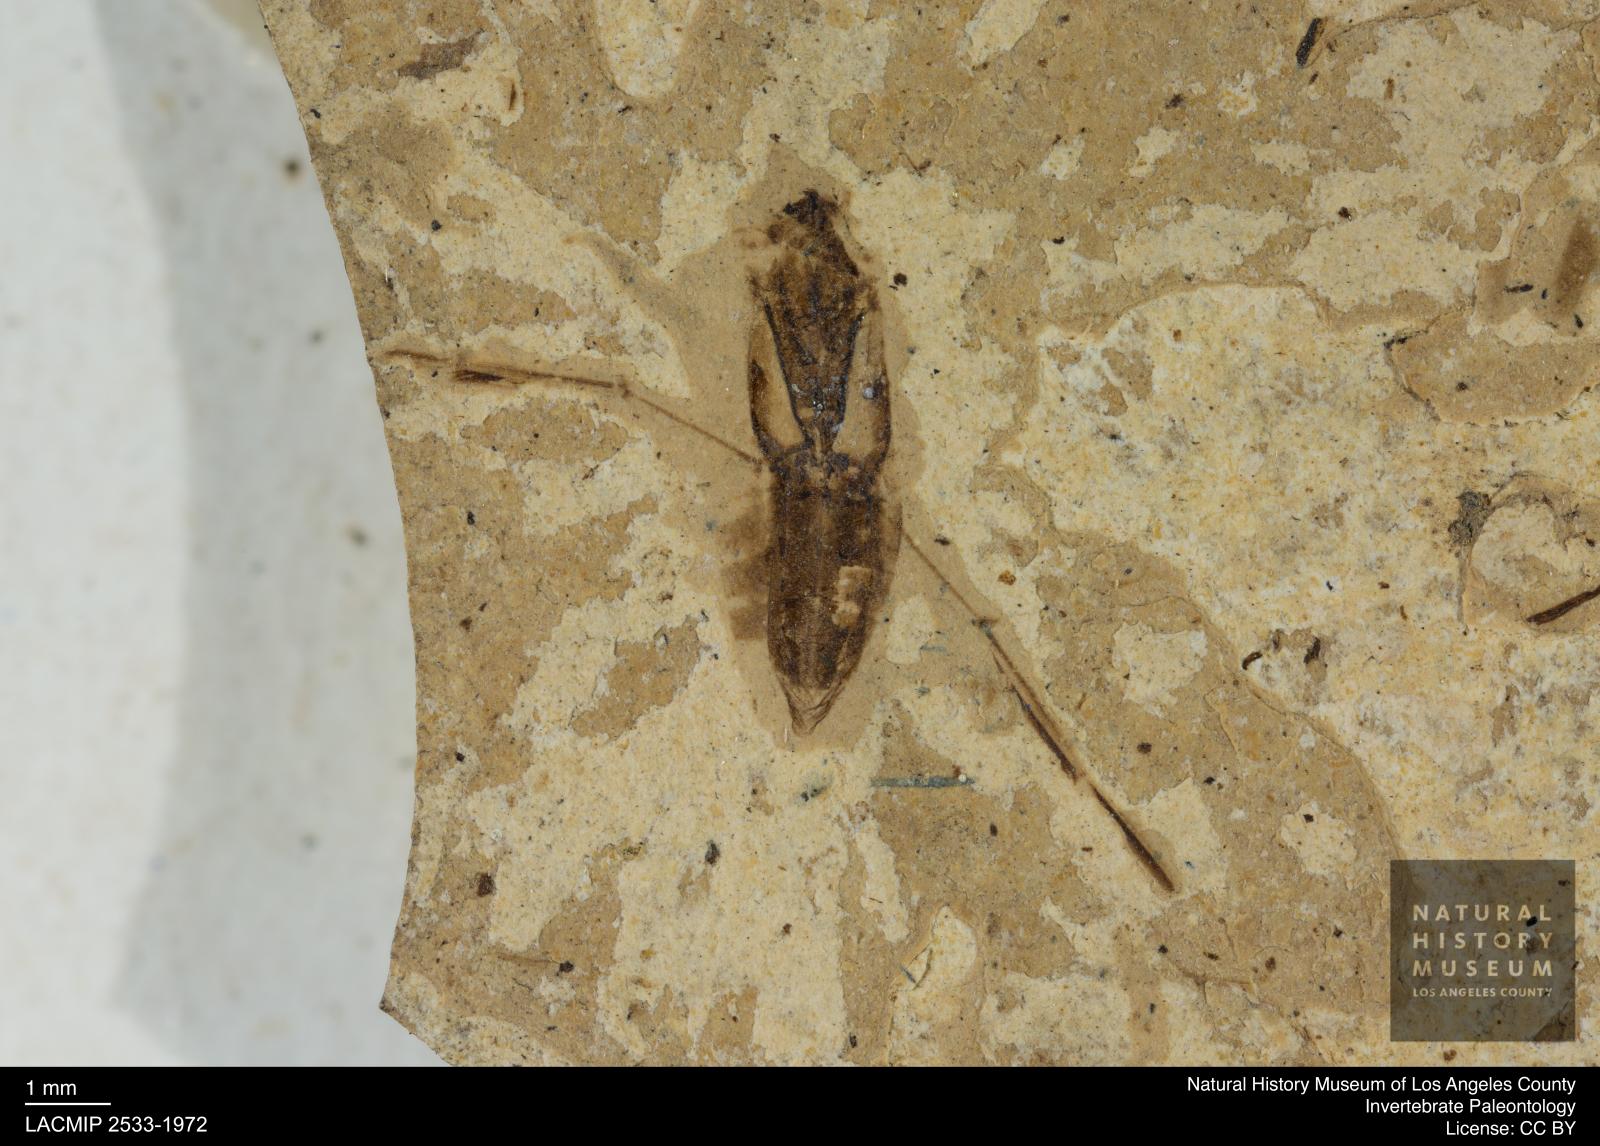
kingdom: Animalia
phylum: Arthropoda
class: Insecta
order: Hemiptera
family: Notonectidae
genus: Anisops
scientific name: Anisops Notonecta deichmuelleri
